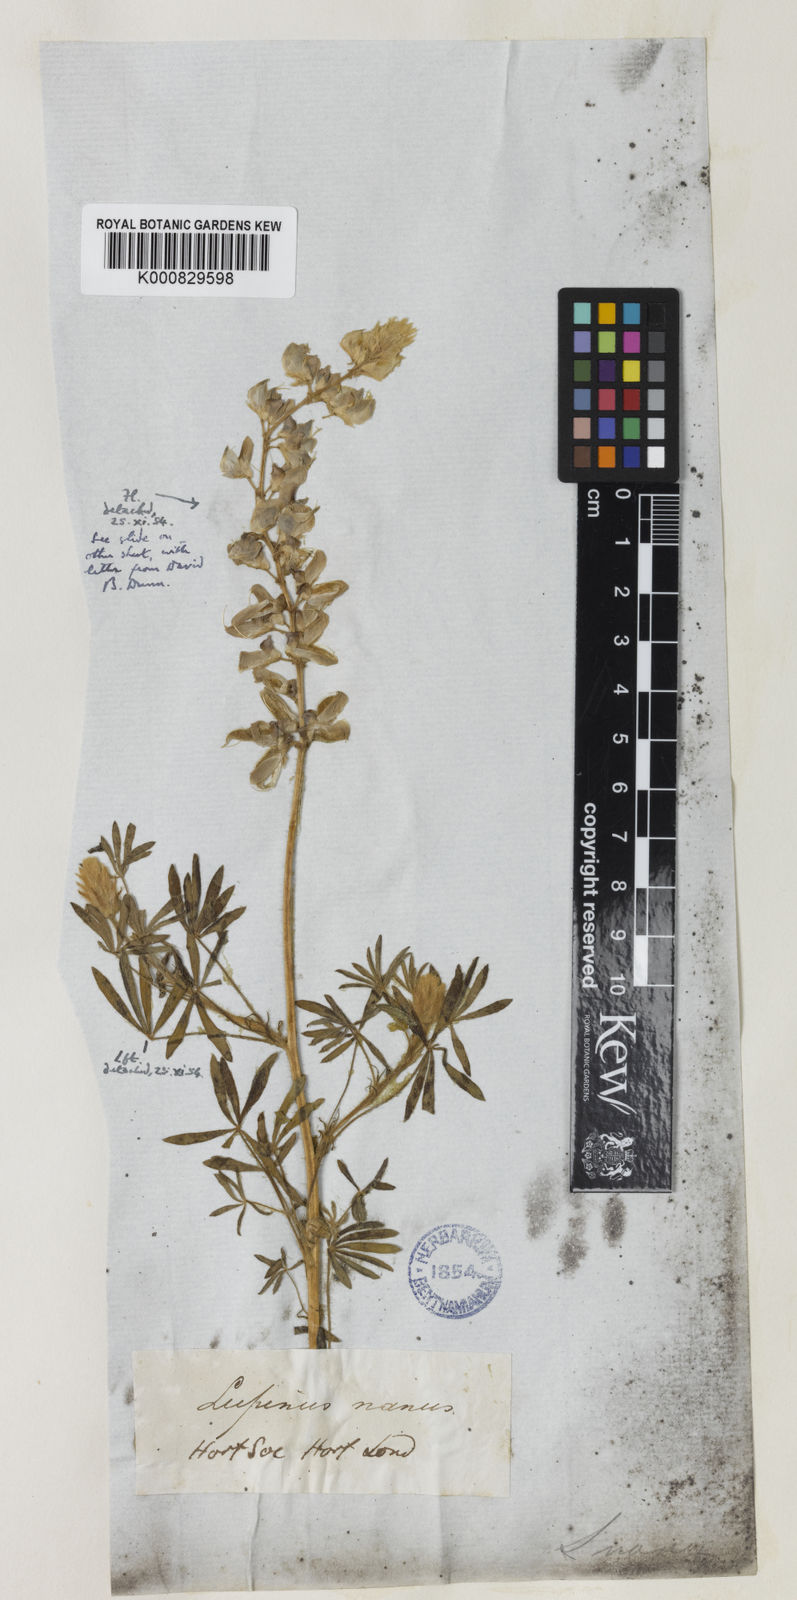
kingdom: Plantae
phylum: Tracheophyta
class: Magnoliopsida
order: Fabales
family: Fabaceae
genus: Lupinus
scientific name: Lupinus nanus
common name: Orean blue lupin
